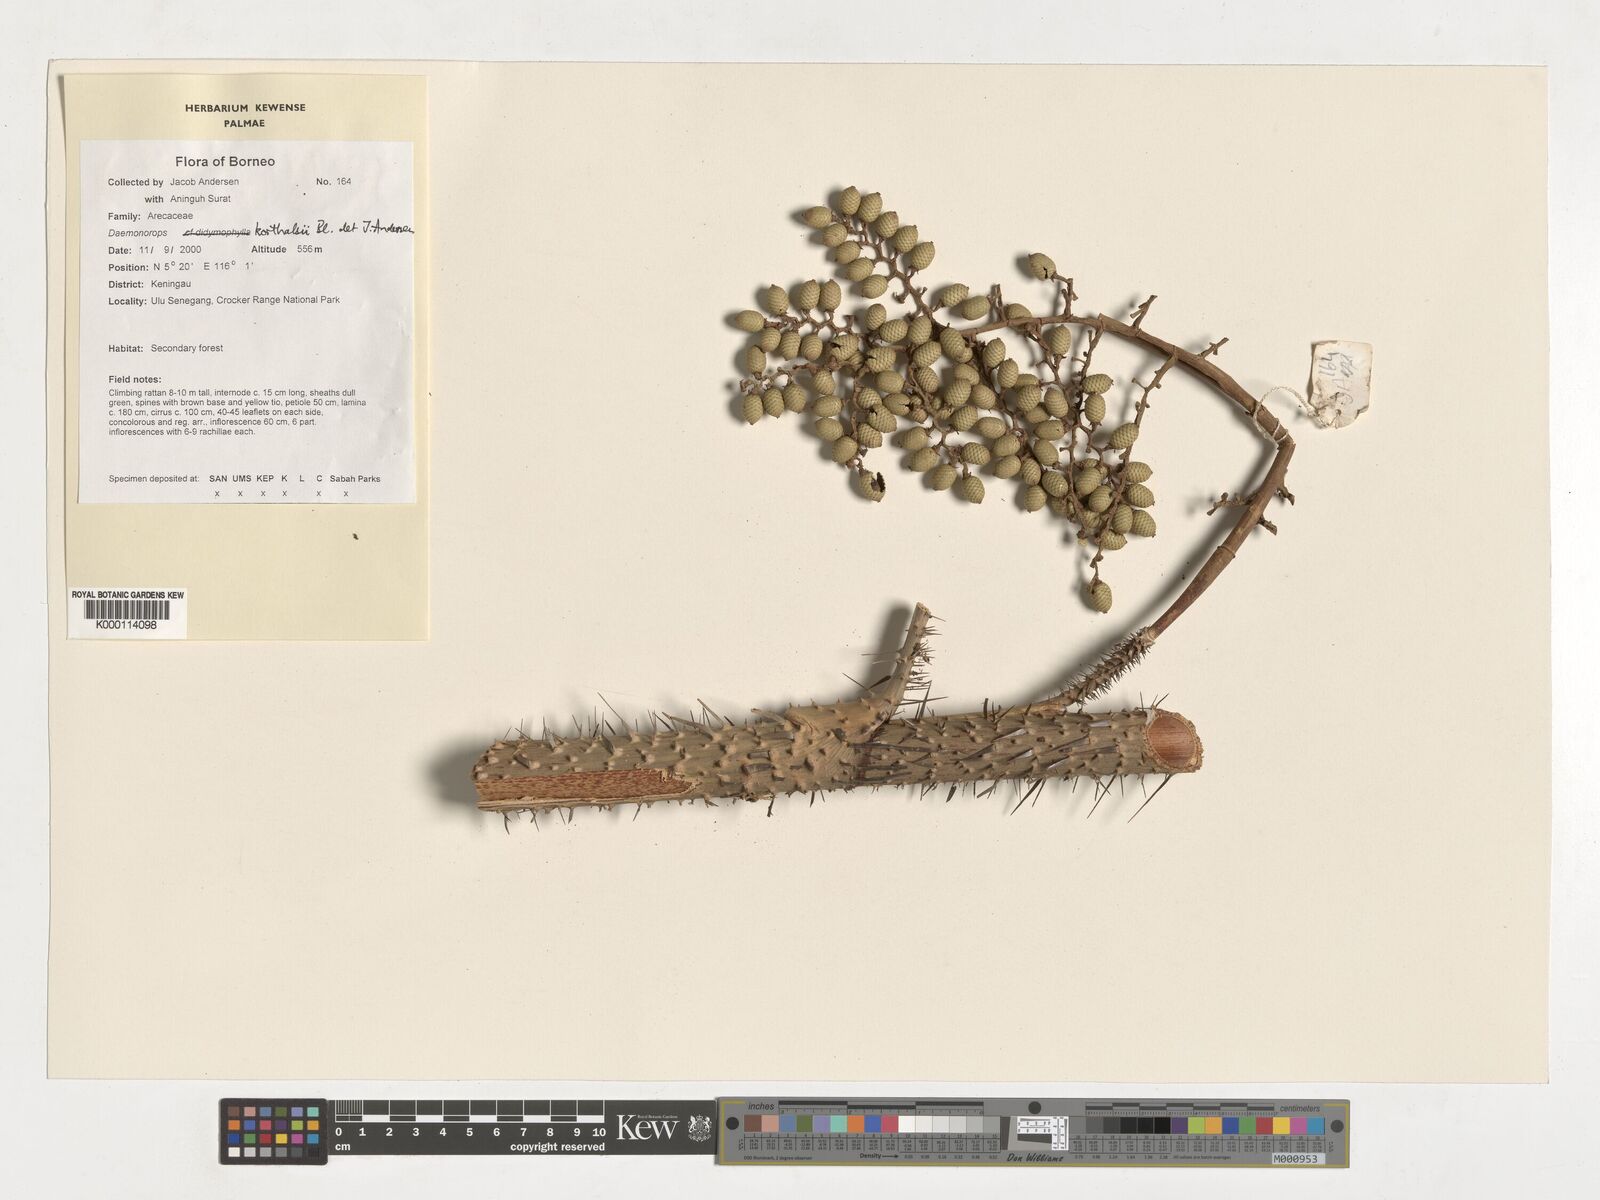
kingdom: Plantae
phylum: Tracheophyta
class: Liliopsida
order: Arecales
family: Arecaceae
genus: Calamus
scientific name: Calamus hirsutus
